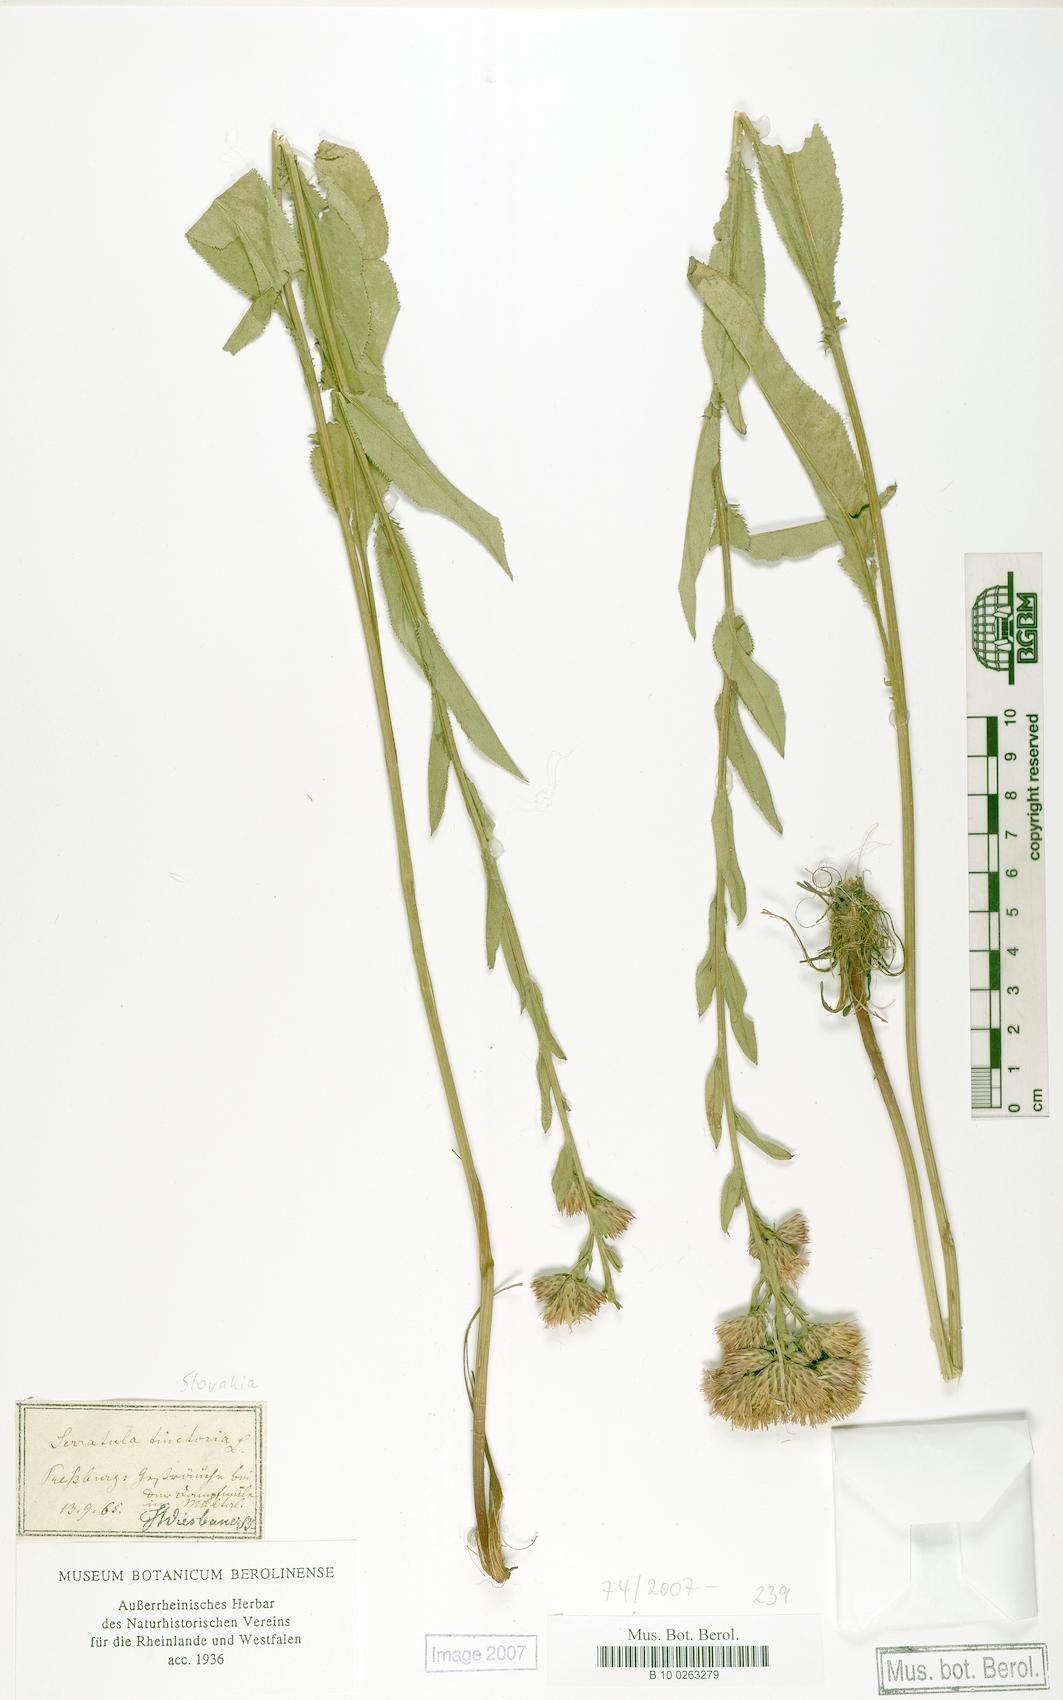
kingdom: Plantae
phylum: Tracheophyta
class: Magnoliopsida
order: Asterales
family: Asteraceae
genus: Serratula
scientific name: Serratula tinctoria
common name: Saw-wort
